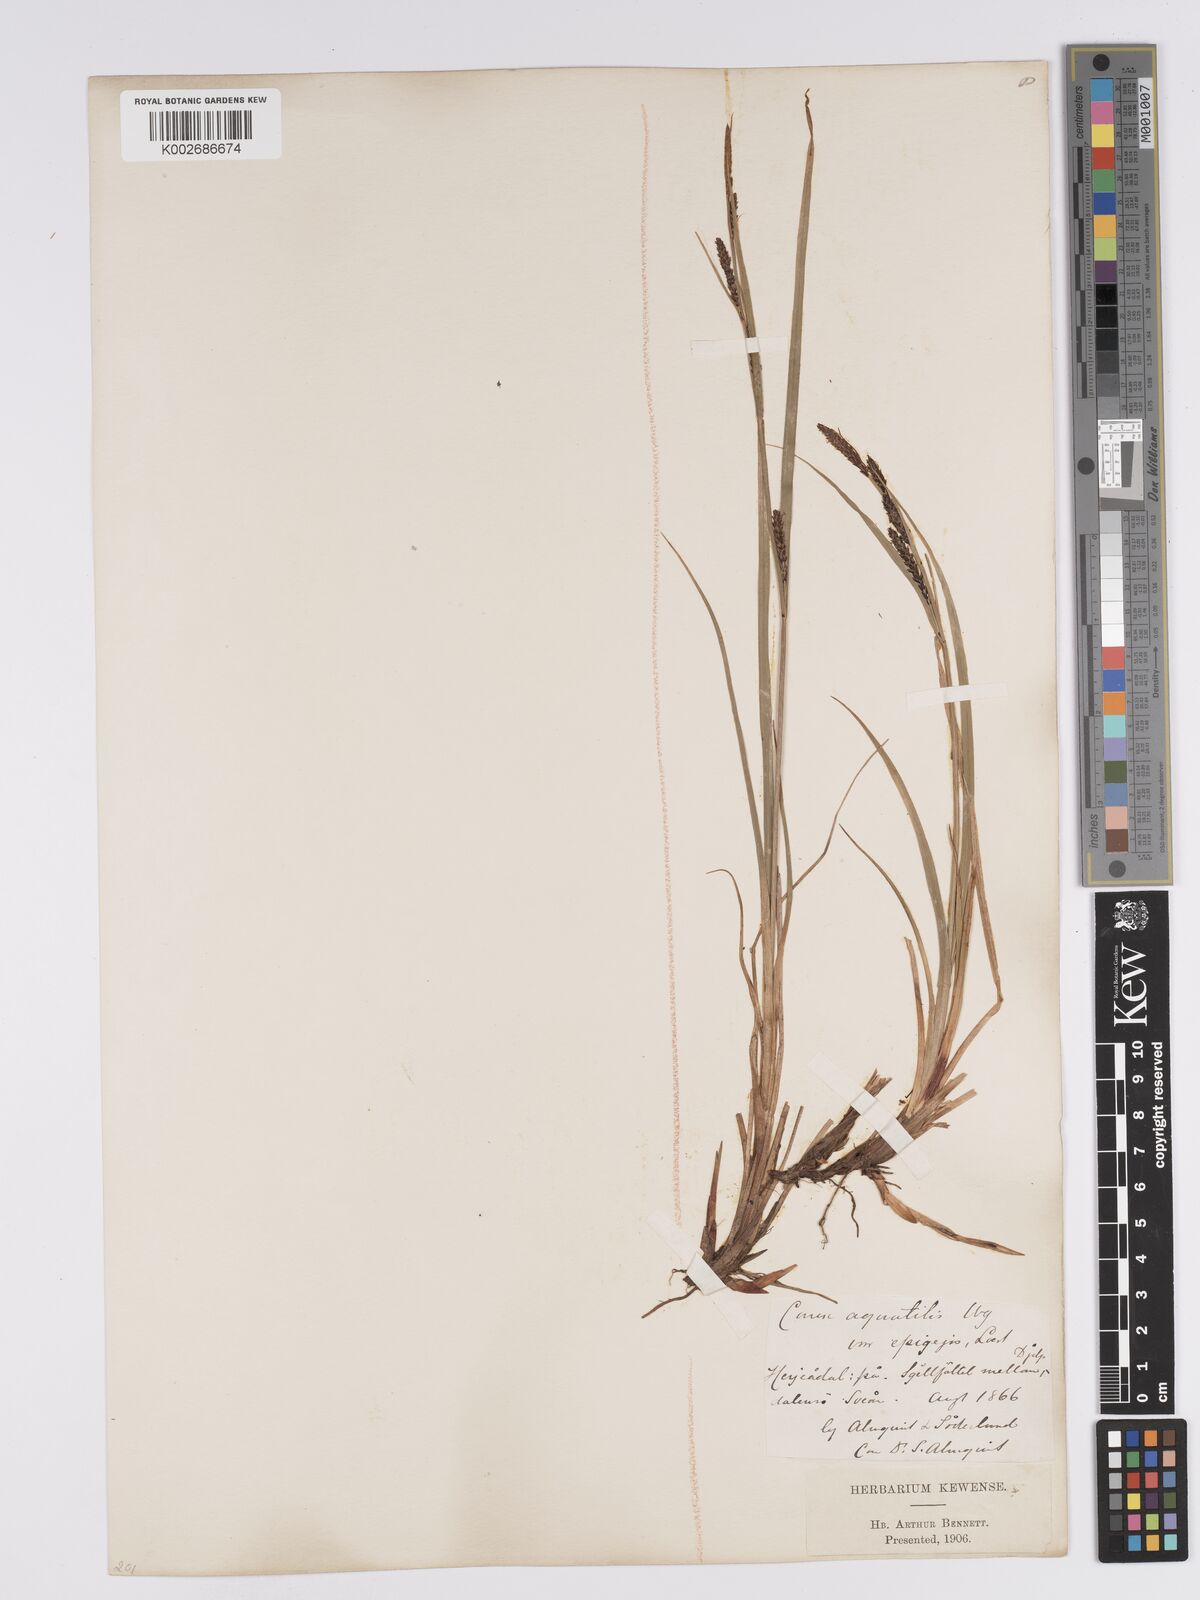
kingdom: Plantae
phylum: Tracheophyta
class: Liliopsida
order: Poales
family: Cyperaceae
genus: Carex
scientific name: Carex aquatilis
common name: Water sedge
